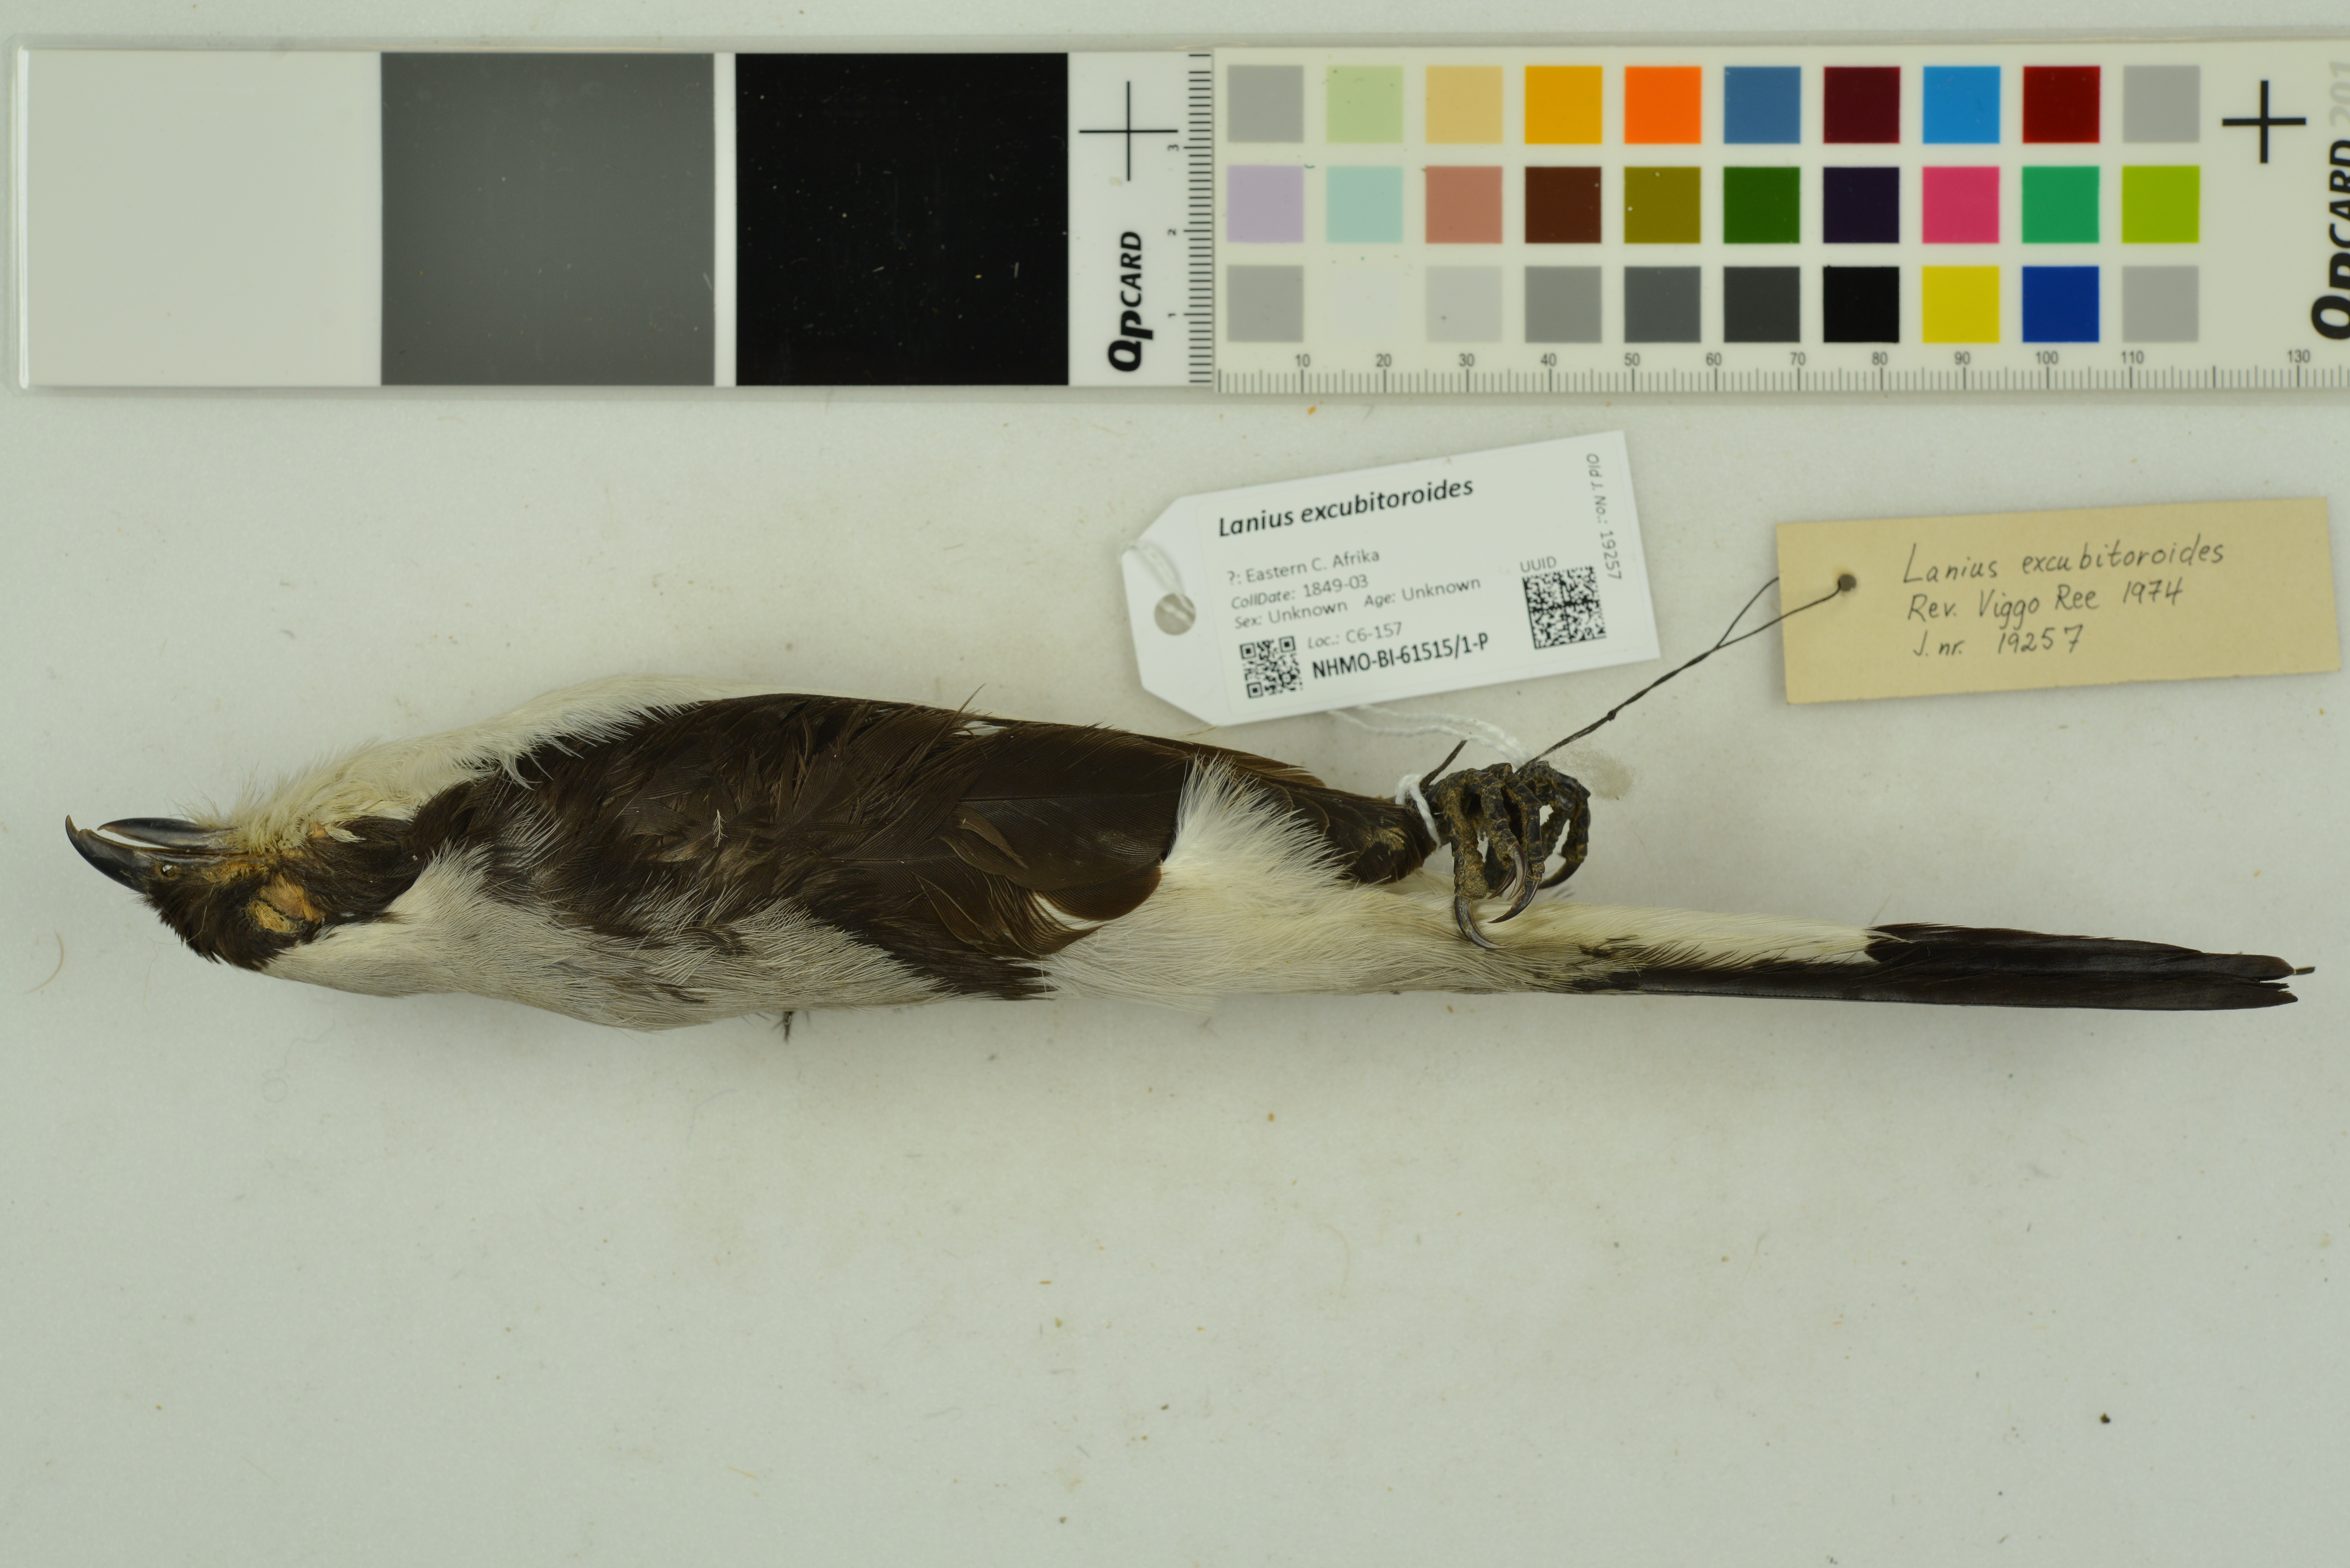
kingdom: Animalia
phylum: Chordata
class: Aves
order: Passeriformes
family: Laniidae
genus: Lanius
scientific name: Lanius excubitoroides
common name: Grey-backed fiscal
